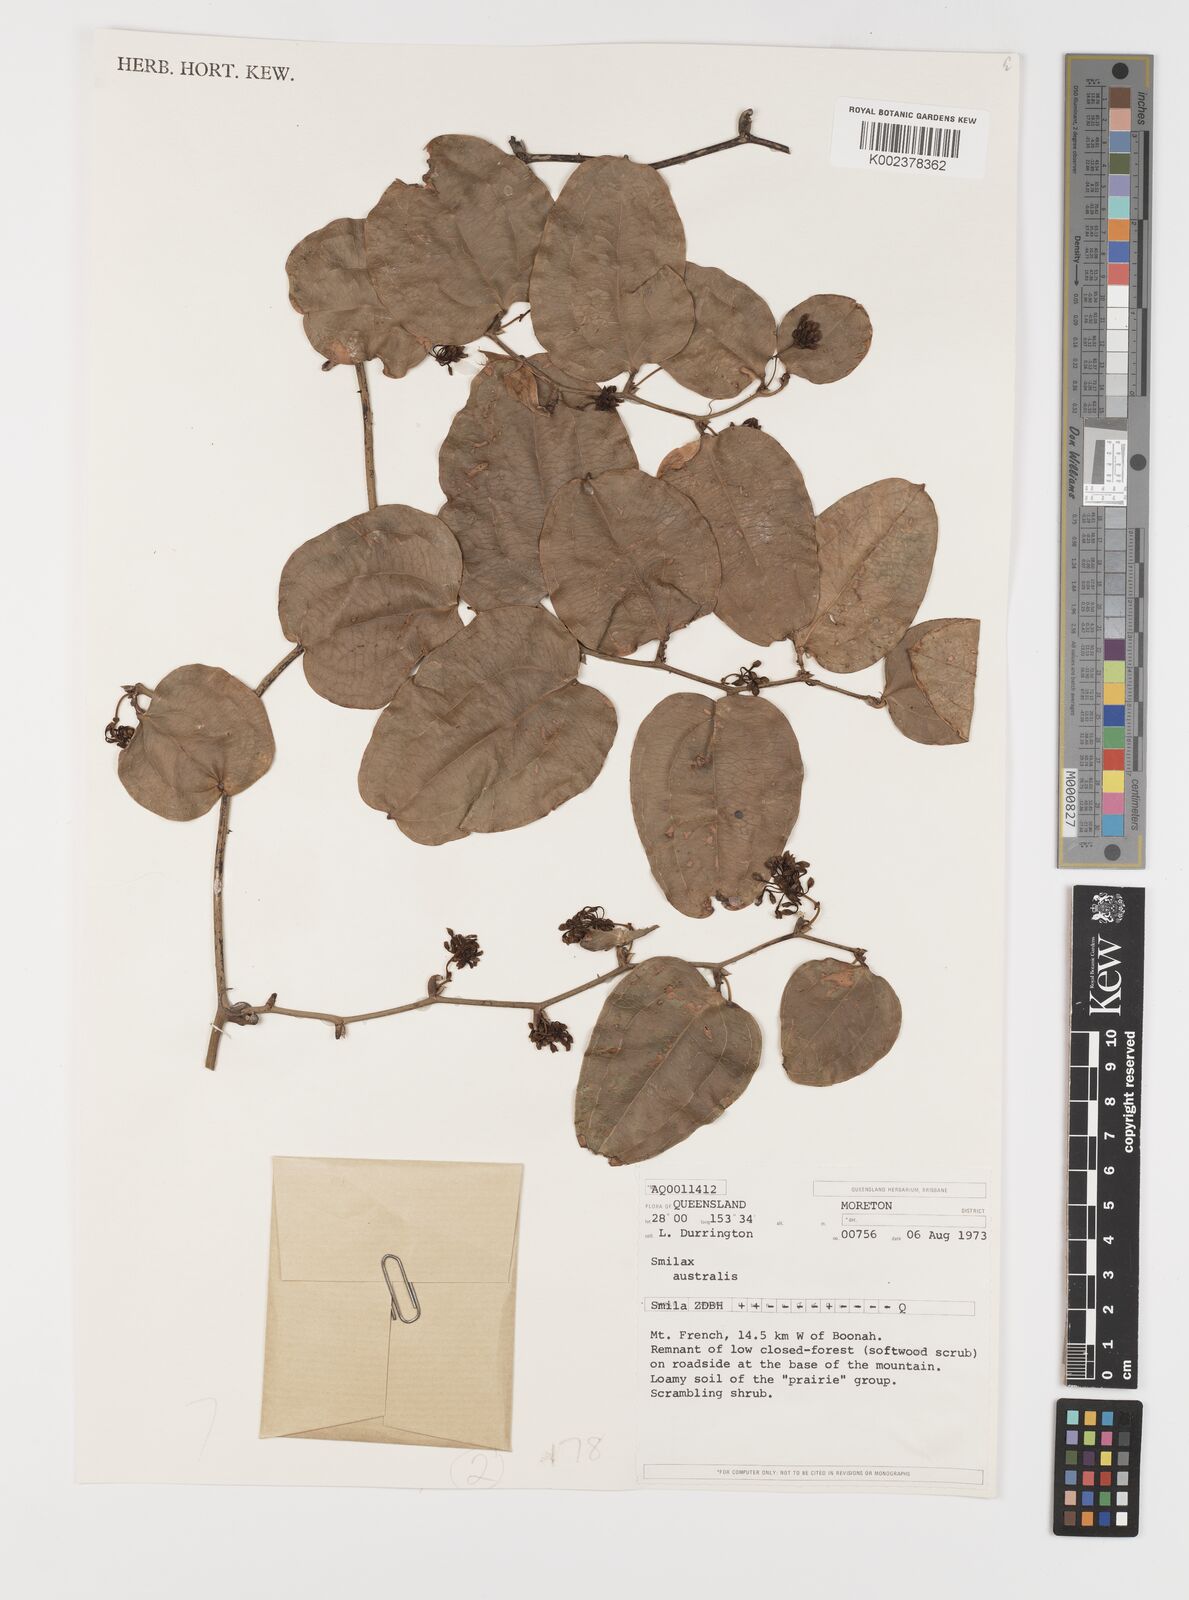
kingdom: Plantae
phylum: Tracheophyta
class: Liliopsida
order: Liliales
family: Smilacaceae
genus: Smilax
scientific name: Smilax australis
